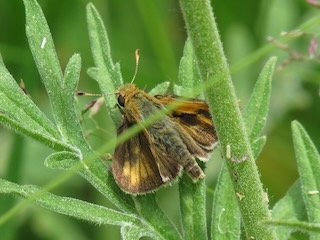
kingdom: Animalia
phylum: Arthropoda
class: Insecta
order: Lepidoptera
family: Hesperiidae
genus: Polites
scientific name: Polites coras
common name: Peck's Skipper
